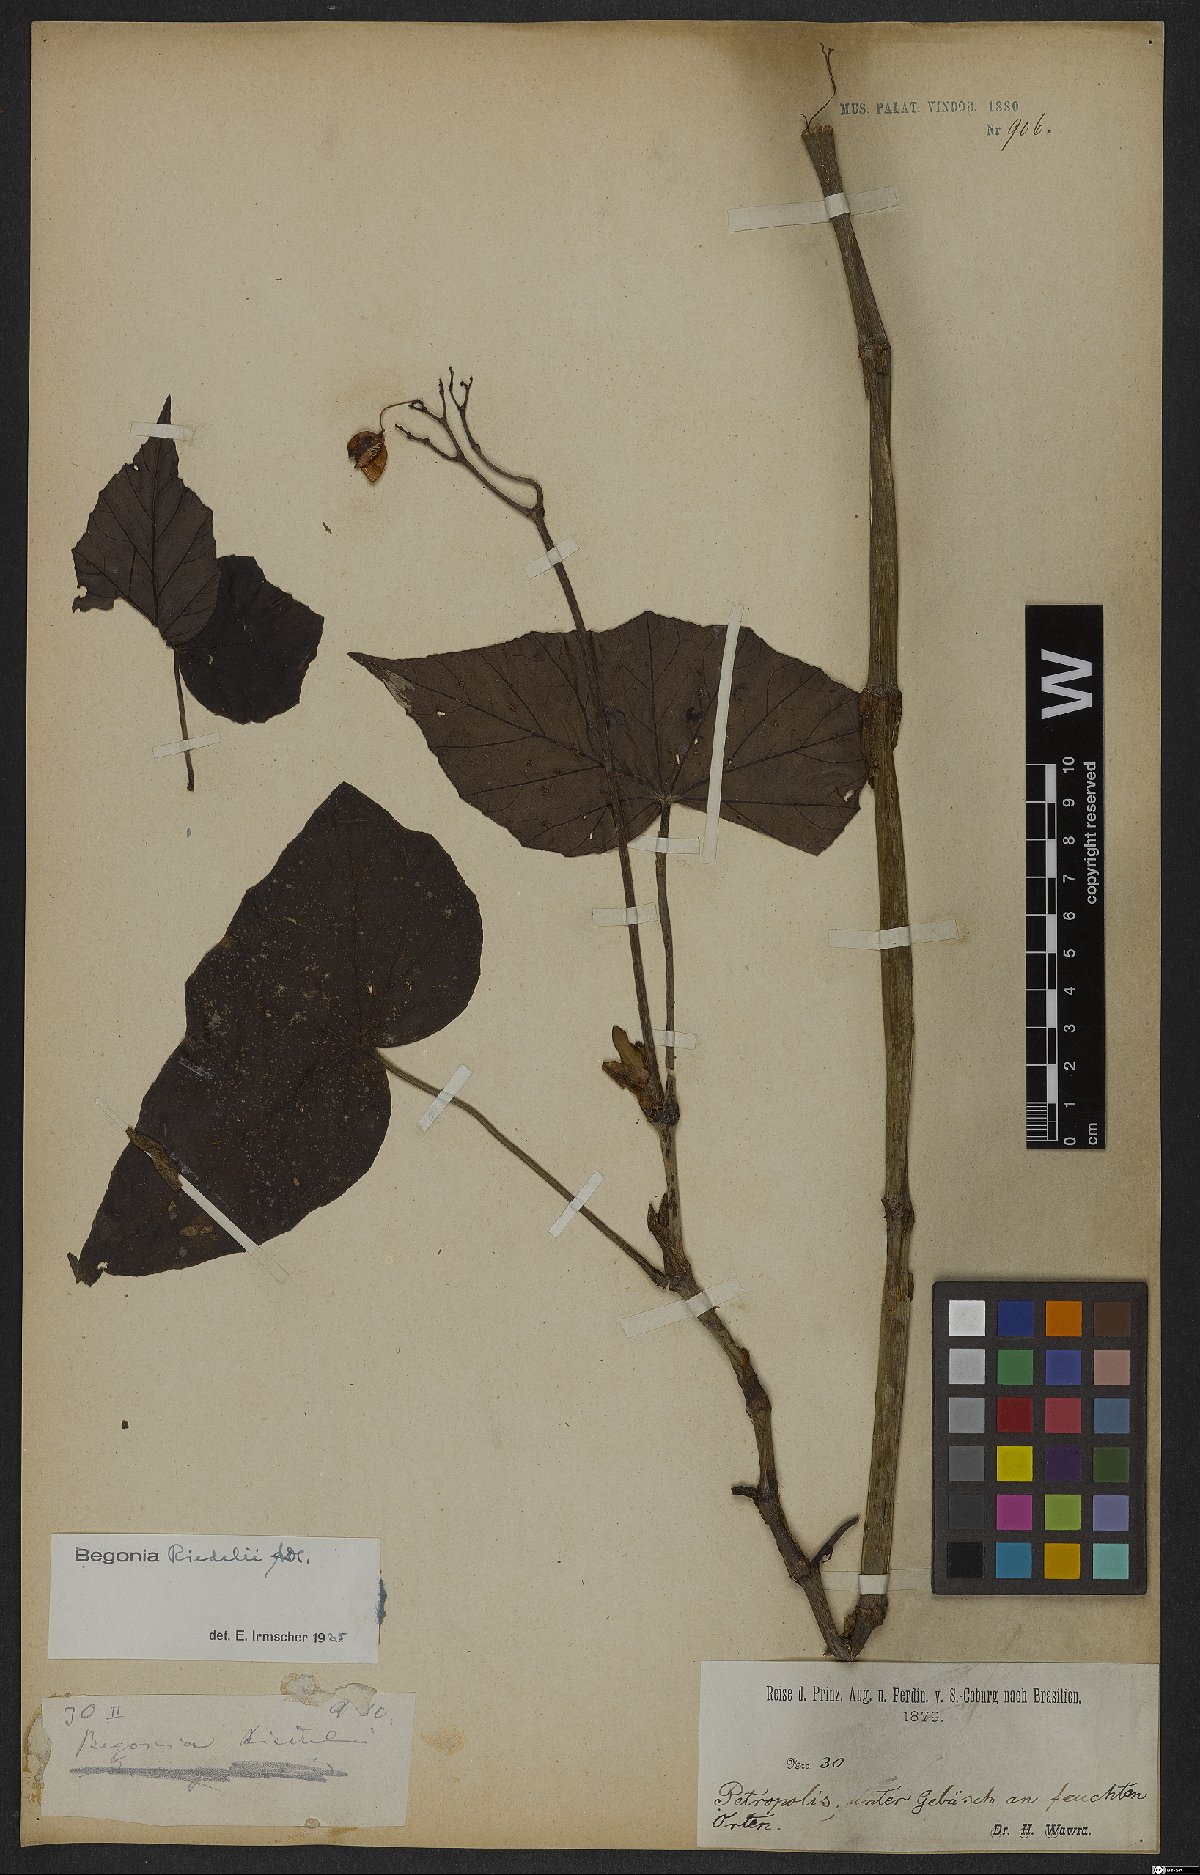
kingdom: Plantae
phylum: Tracheophyta
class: Magnoliopsida
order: Cucurbitales
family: Begoniaceae
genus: Begonia
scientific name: Begonia riedelii
